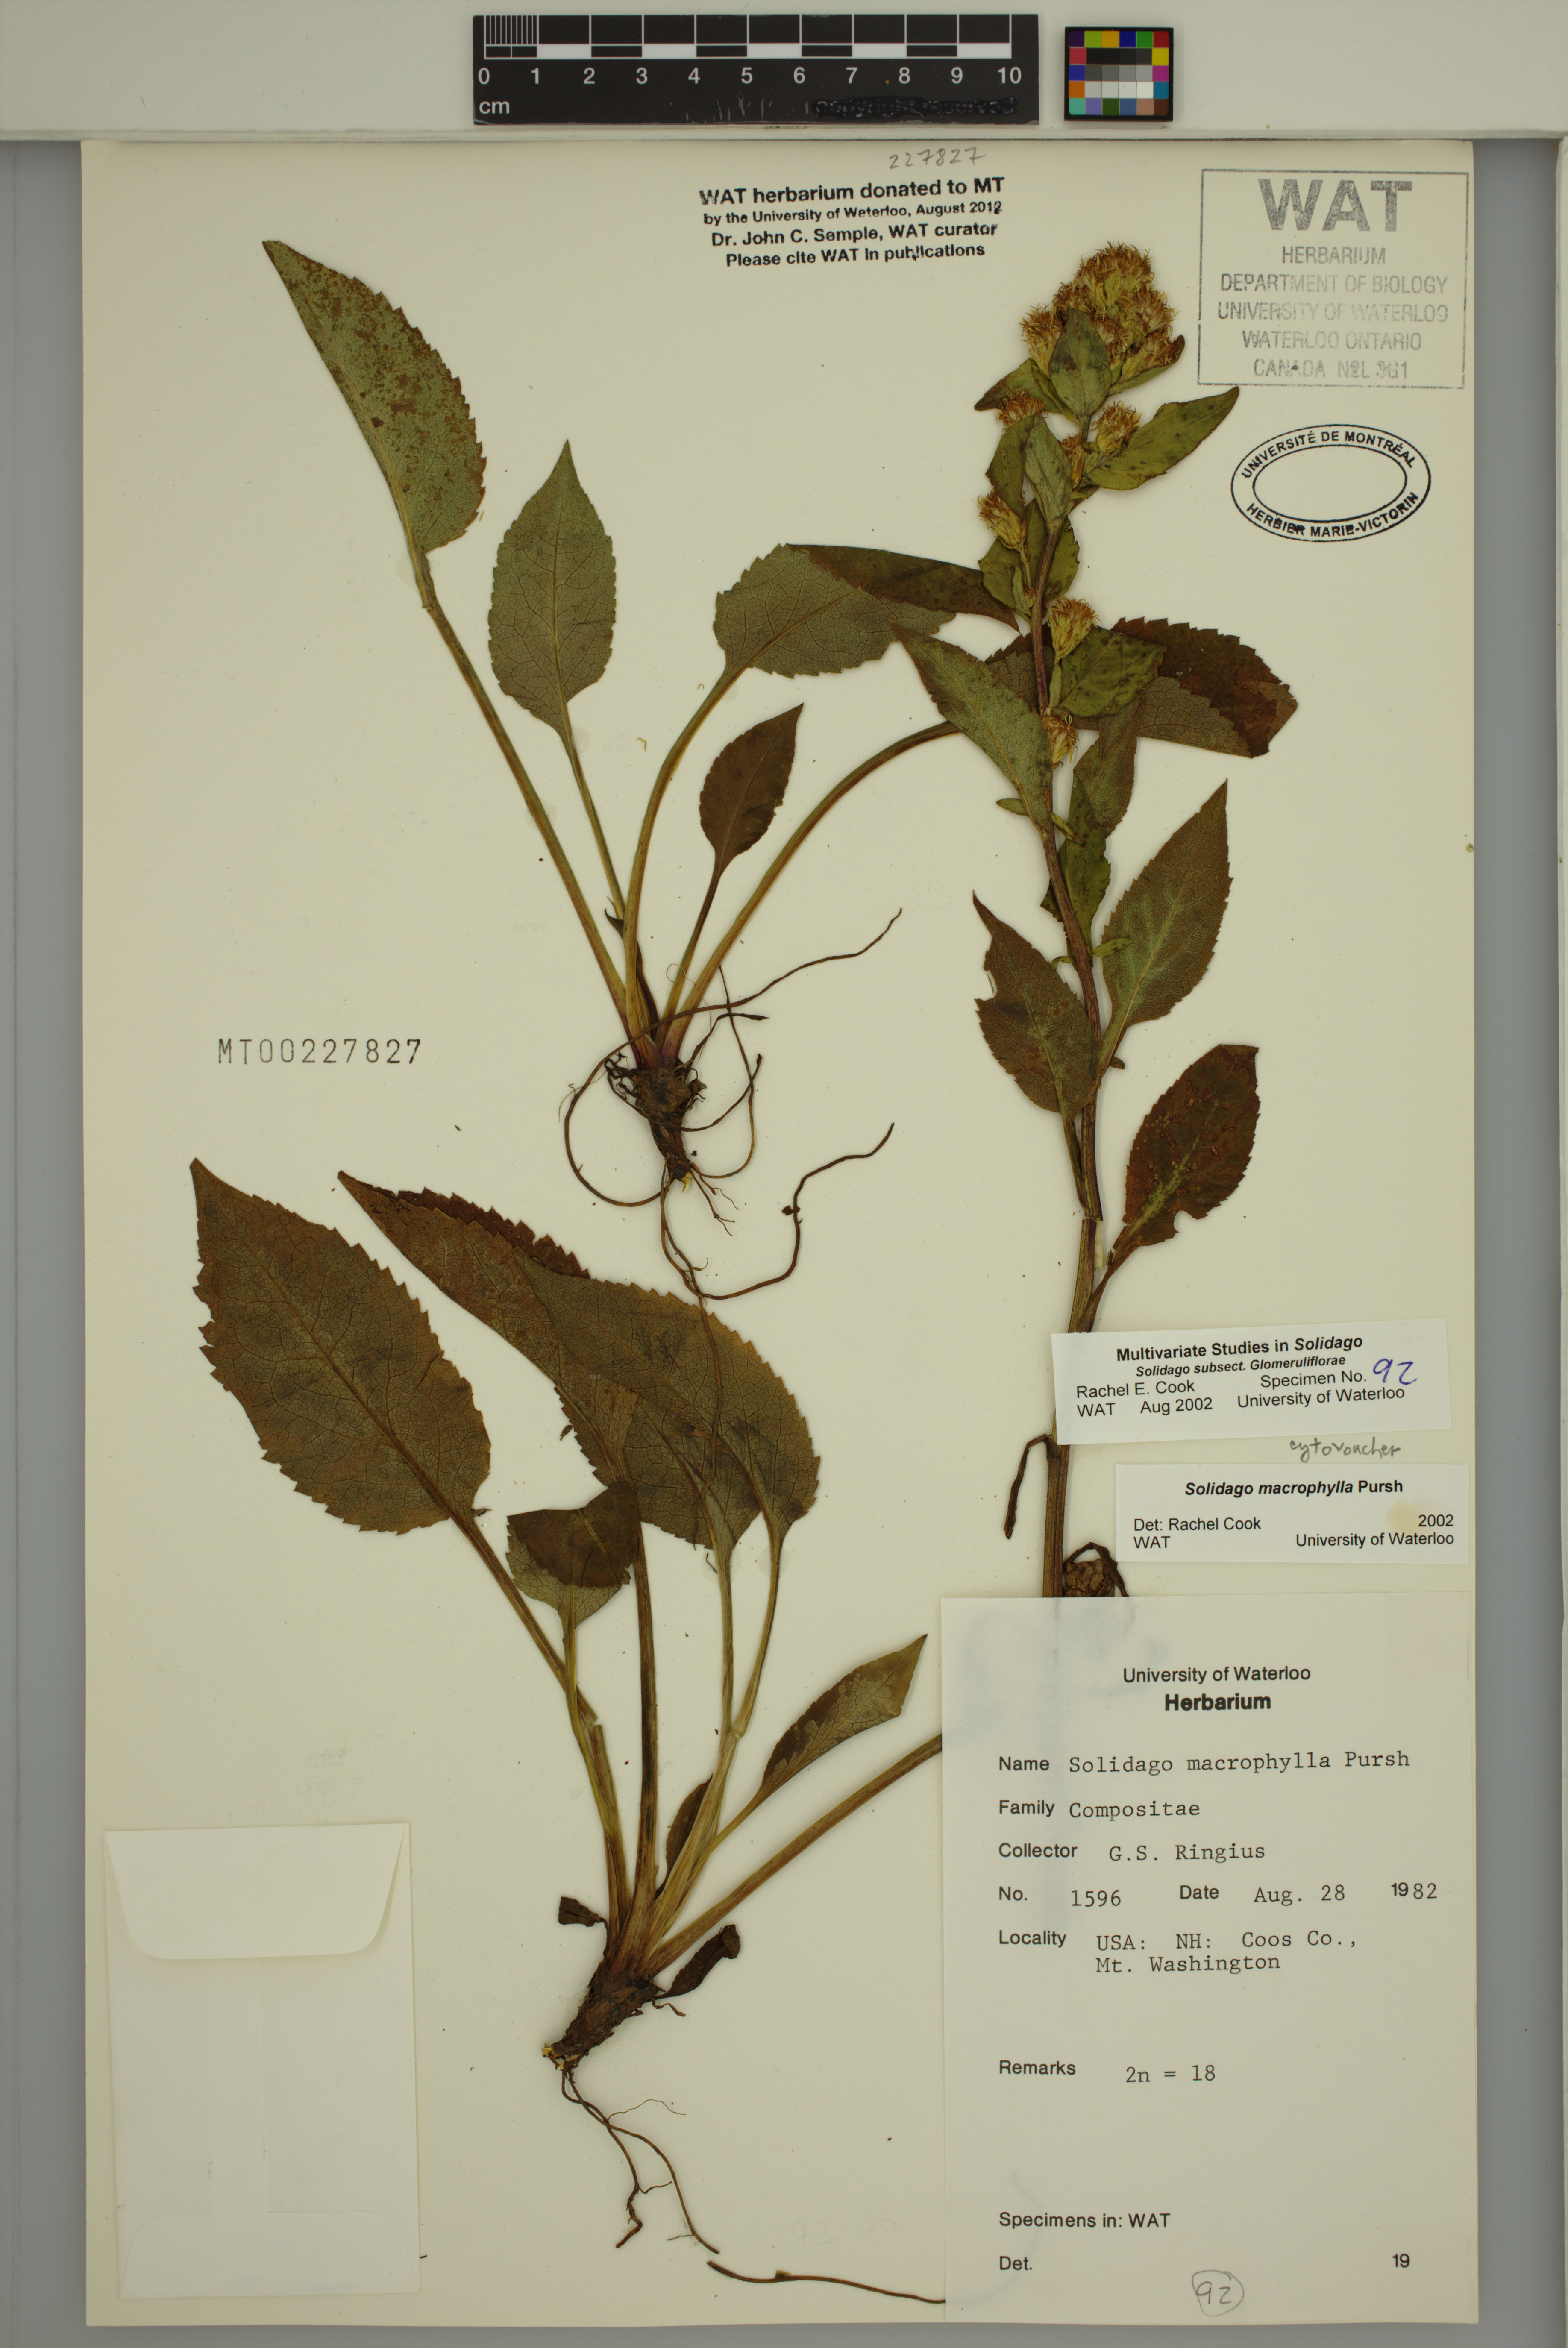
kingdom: Plantae
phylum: Tracheophyta
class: Magnoliopsida
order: Asterales
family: Asteraceae
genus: Solidago
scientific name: Solidago macrophylla
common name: Large-leaved goldenrod
